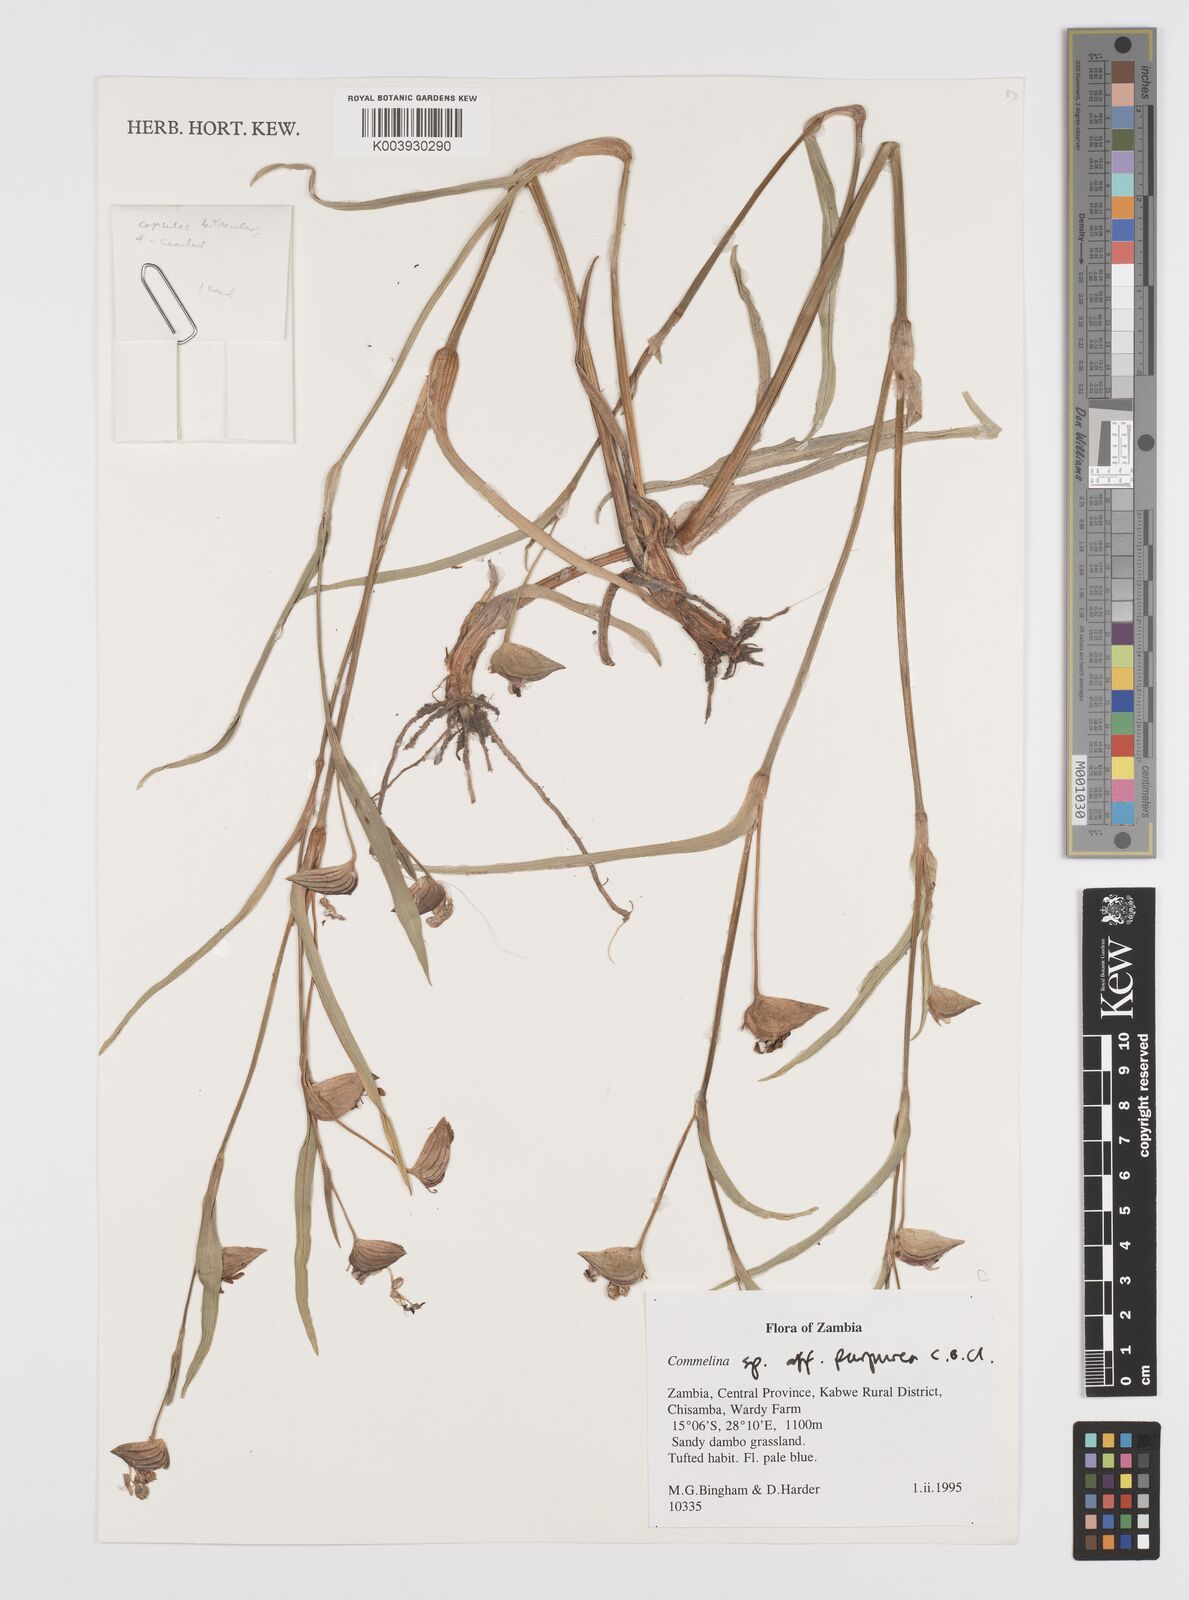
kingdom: Plantae
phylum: Tracheophyta
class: Liliopsida
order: Commelinales
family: Commelinaceae
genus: Commelina
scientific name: Commelina schweinfurthii
